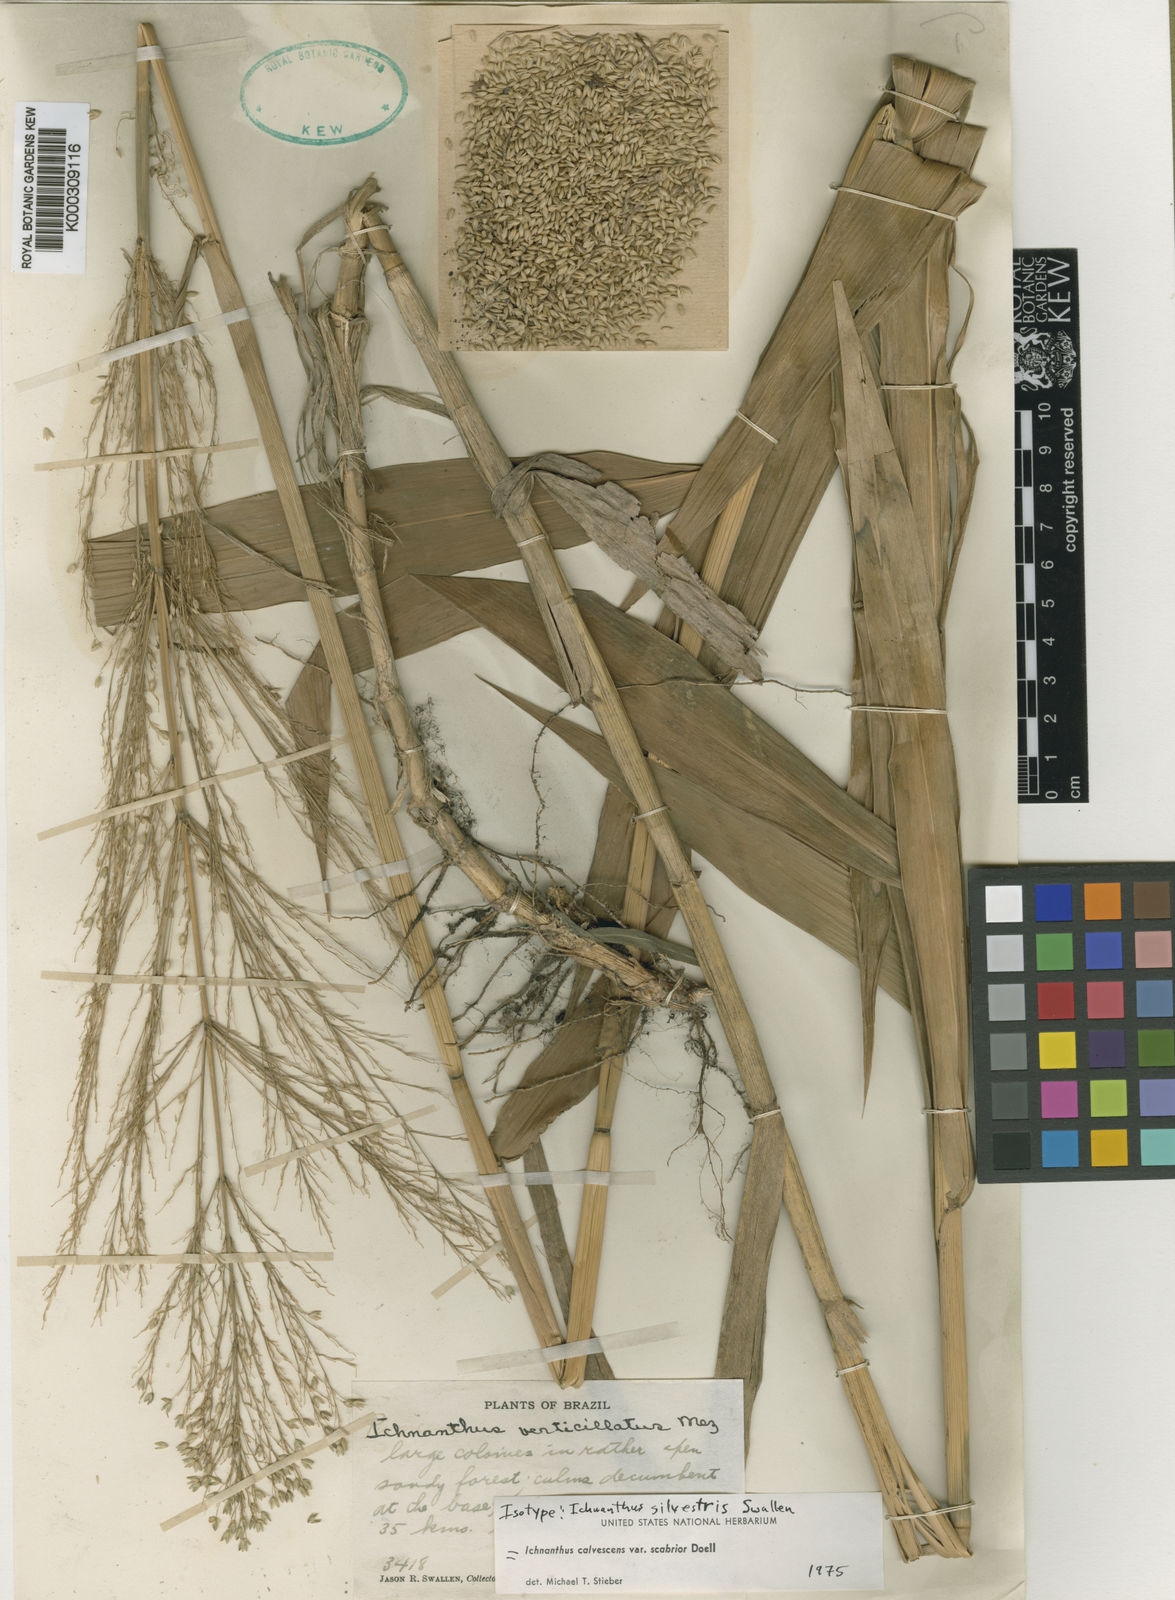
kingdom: Plantae
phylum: Tracheophyta
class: Liliopsida
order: Poales
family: Poaceae
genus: Ichnanthus
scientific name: Ichnanthus
